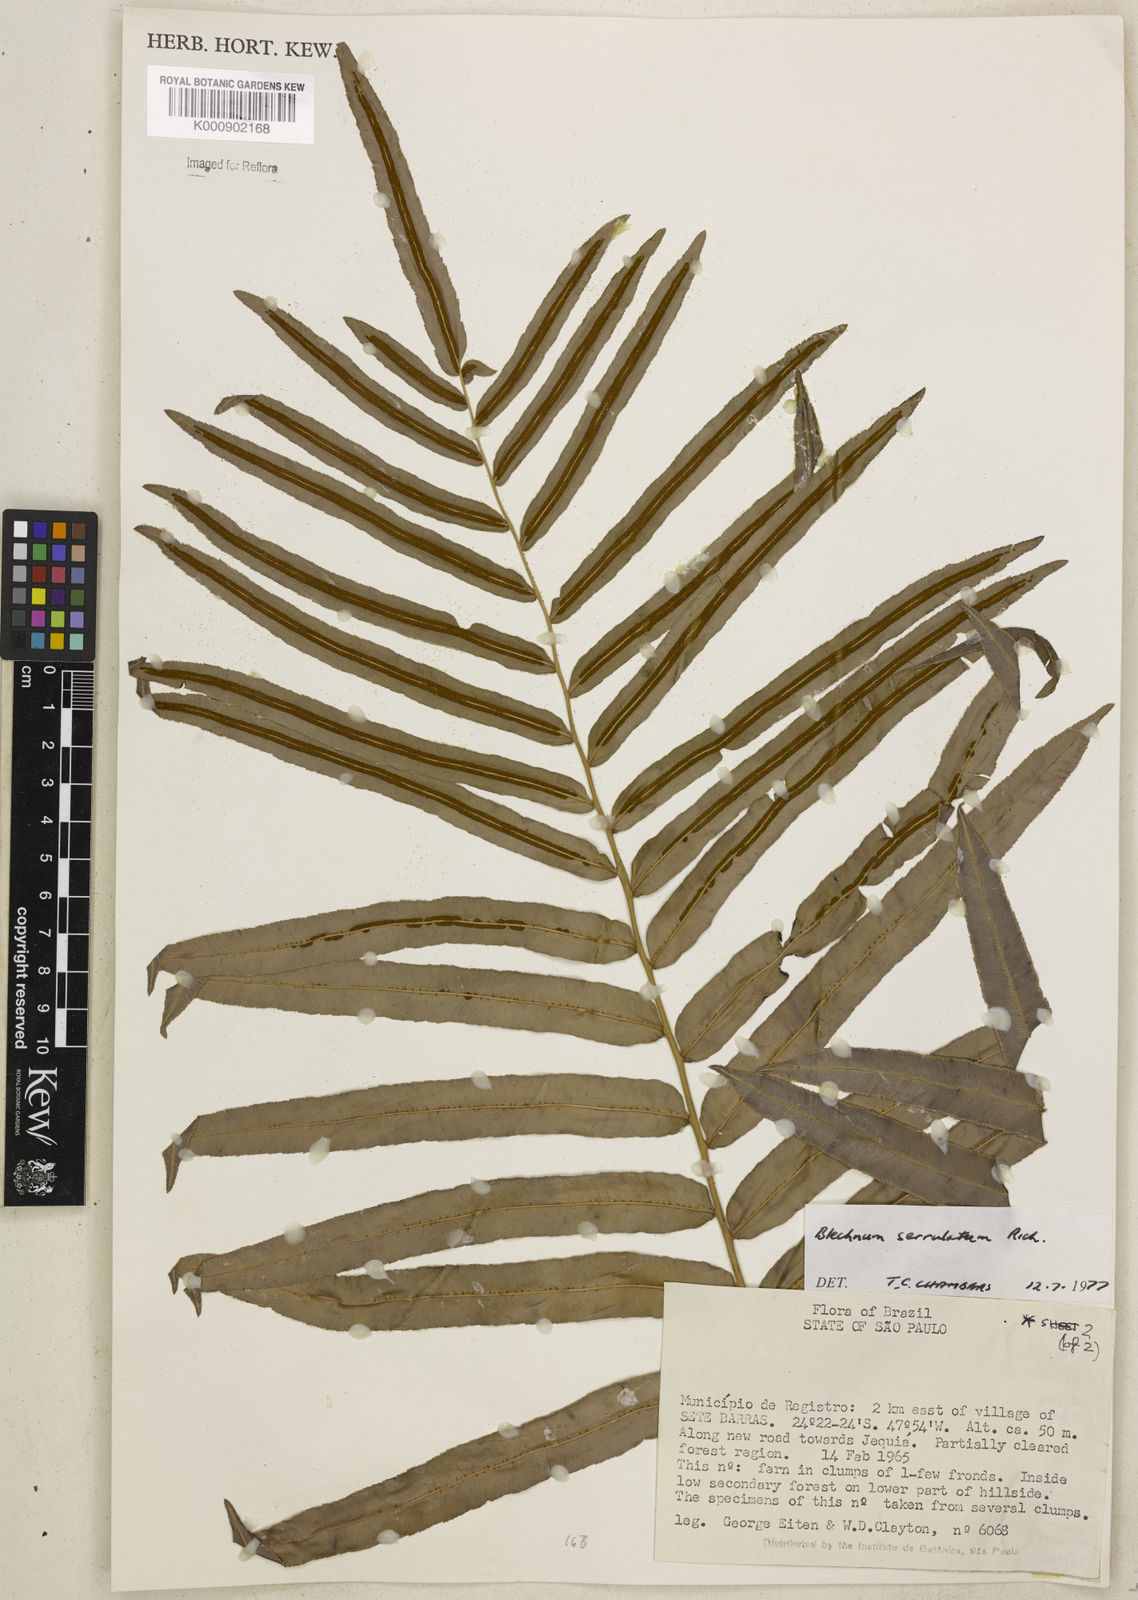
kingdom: Plantae
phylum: Tracheophyta
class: Polypodiopsida
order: Polypodiales
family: Blechnaceae
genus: Telmatoblechnum
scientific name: Telmatoblechnum serrulatum
